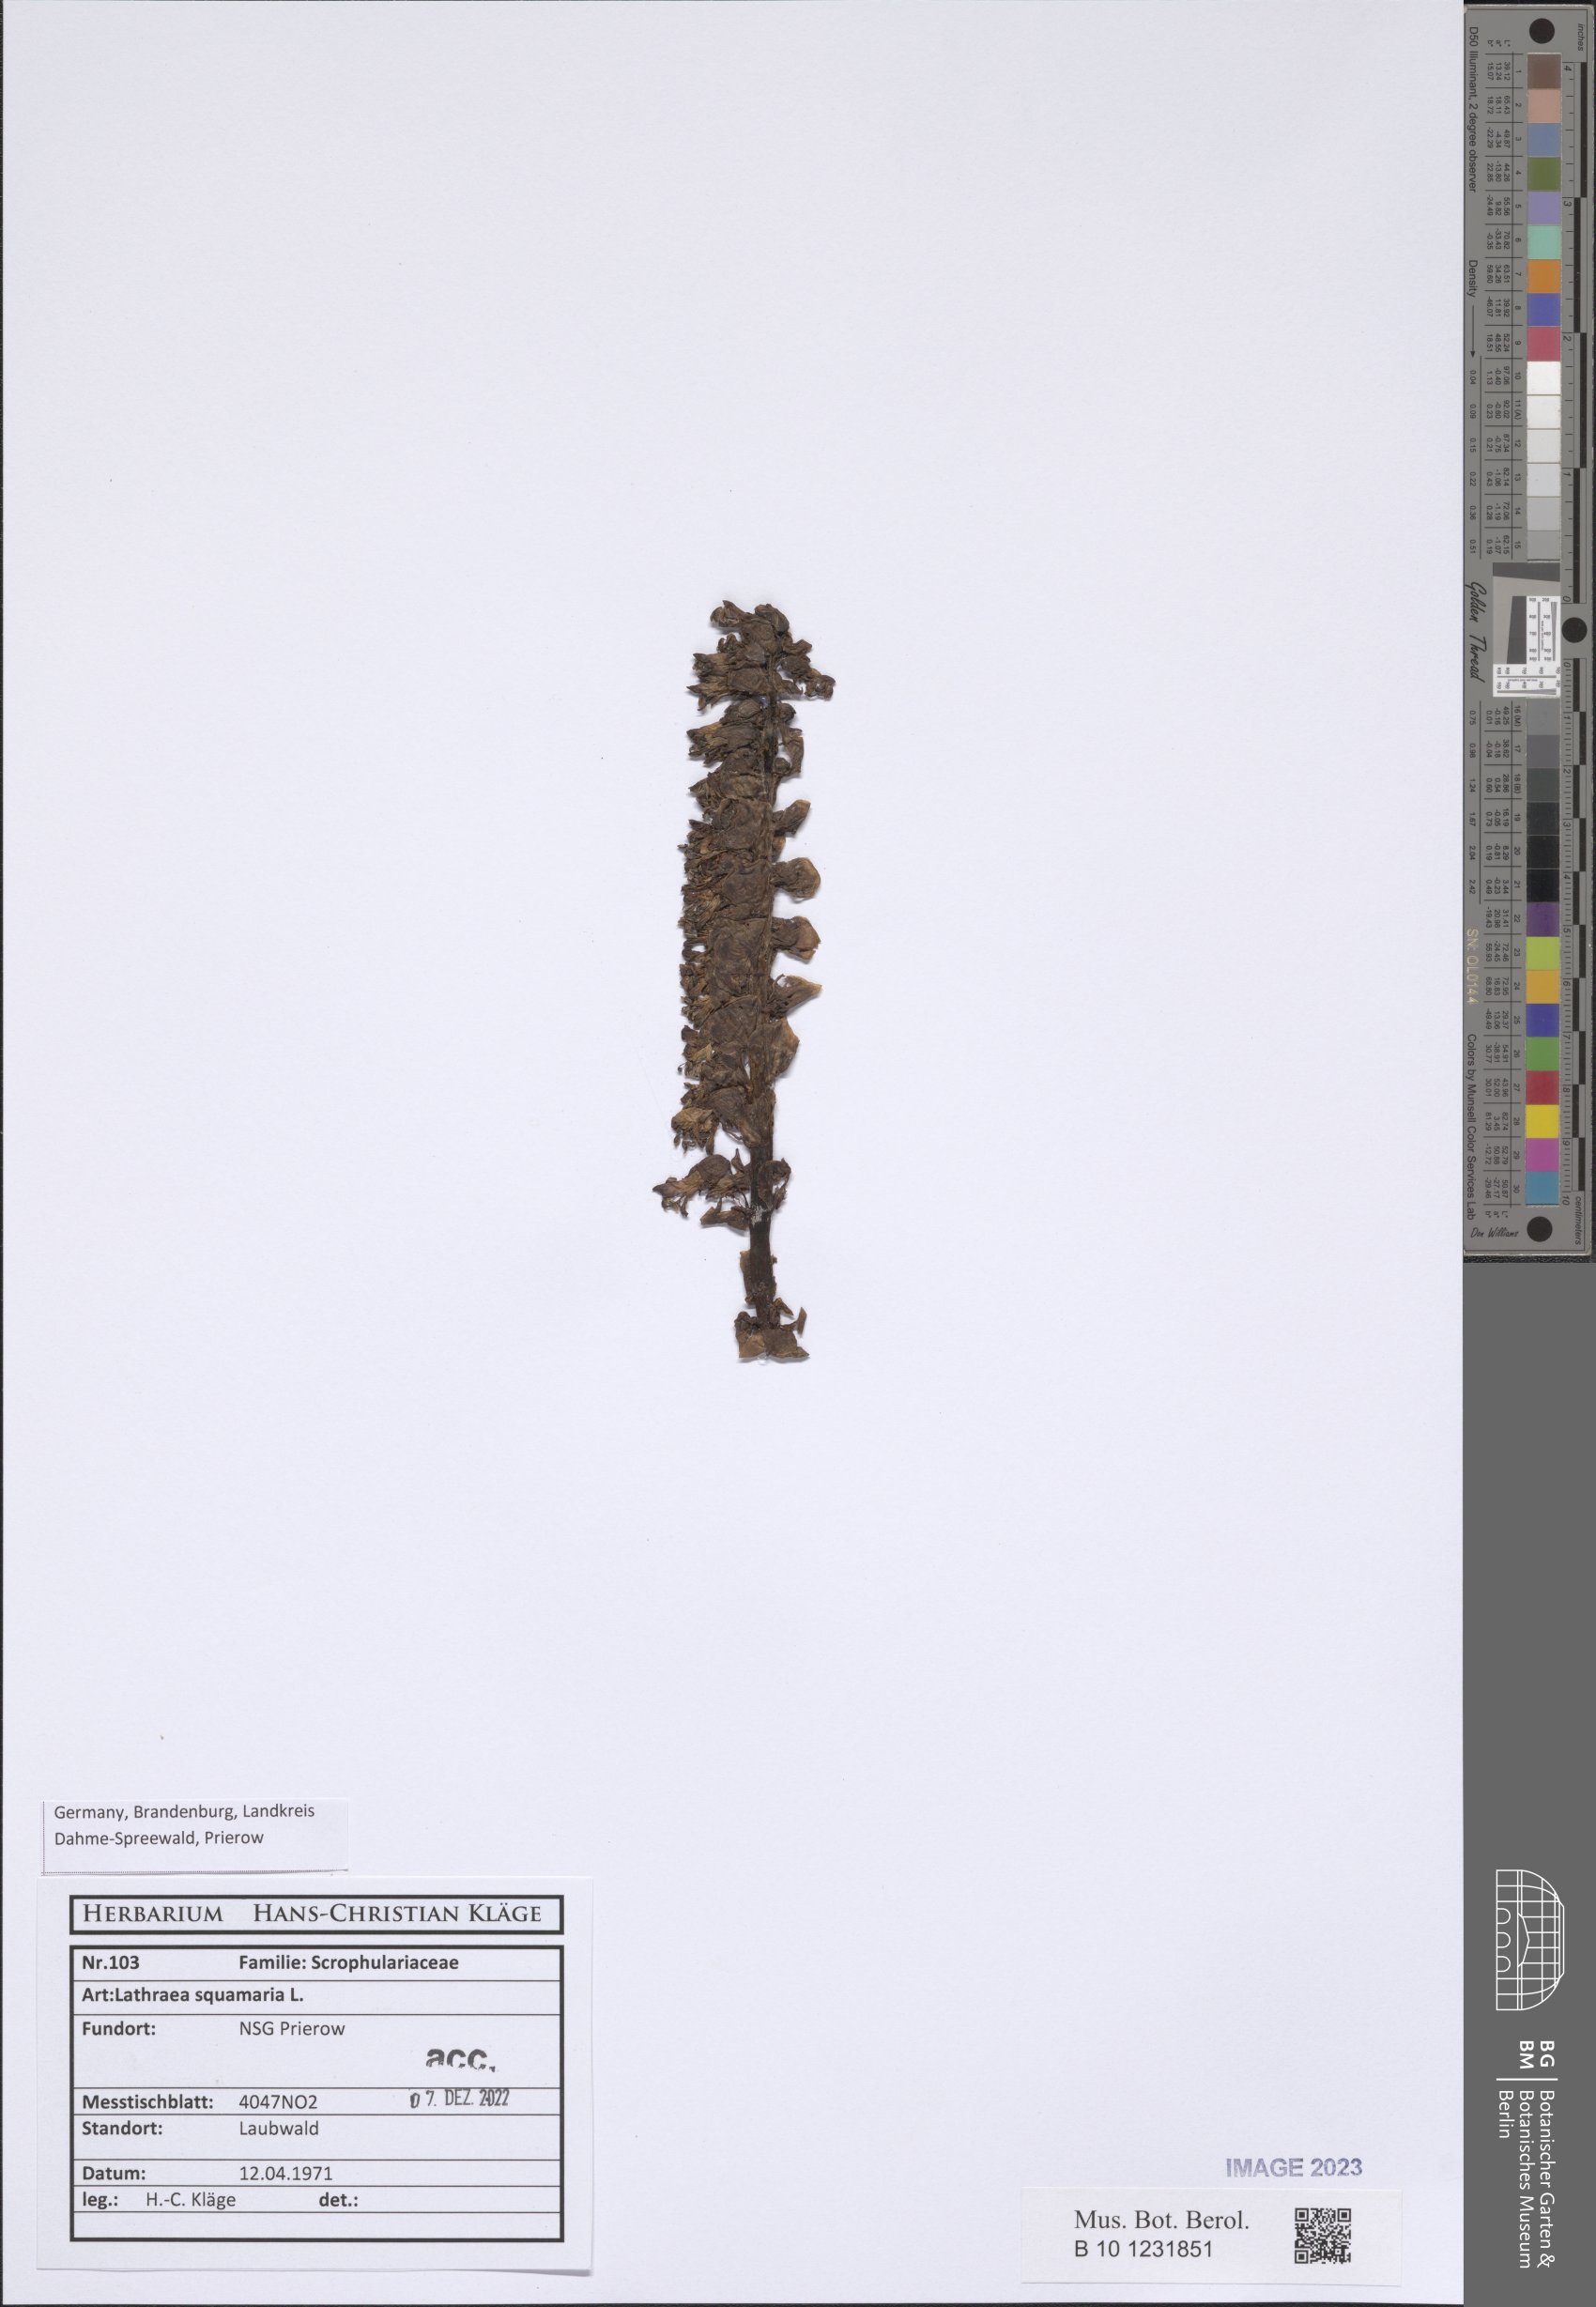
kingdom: Plantae
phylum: Tracheophyta
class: Magnoliopsida
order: Lamiales
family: Orobanchaceae
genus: Lathraea
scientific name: Lathraea squamaria
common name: Toothwort
